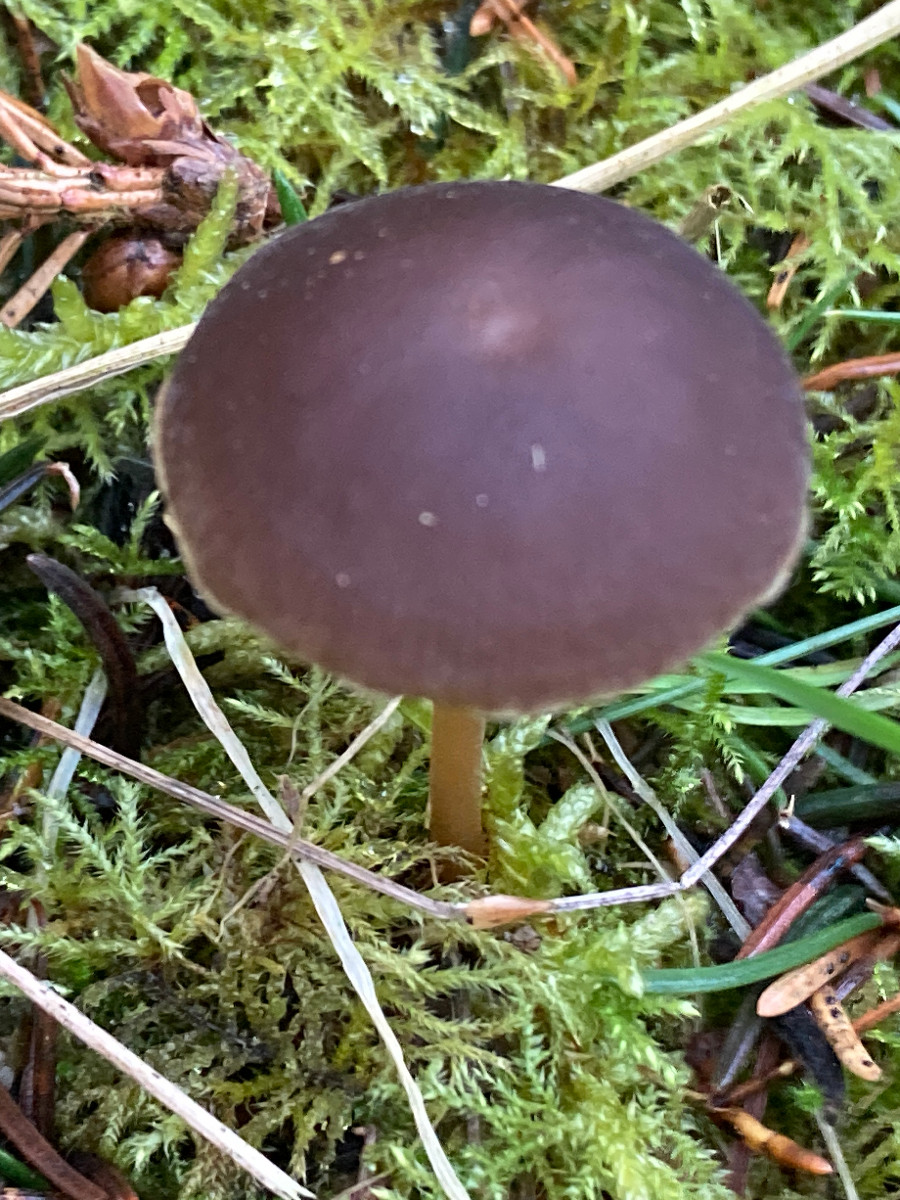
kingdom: Fungi
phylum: Basidiomycota
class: Agaricomycetes
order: Agaricales
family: Physalacriaceae
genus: Strobilurus
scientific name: Strobilurus esculentus
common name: gran-koglehat
